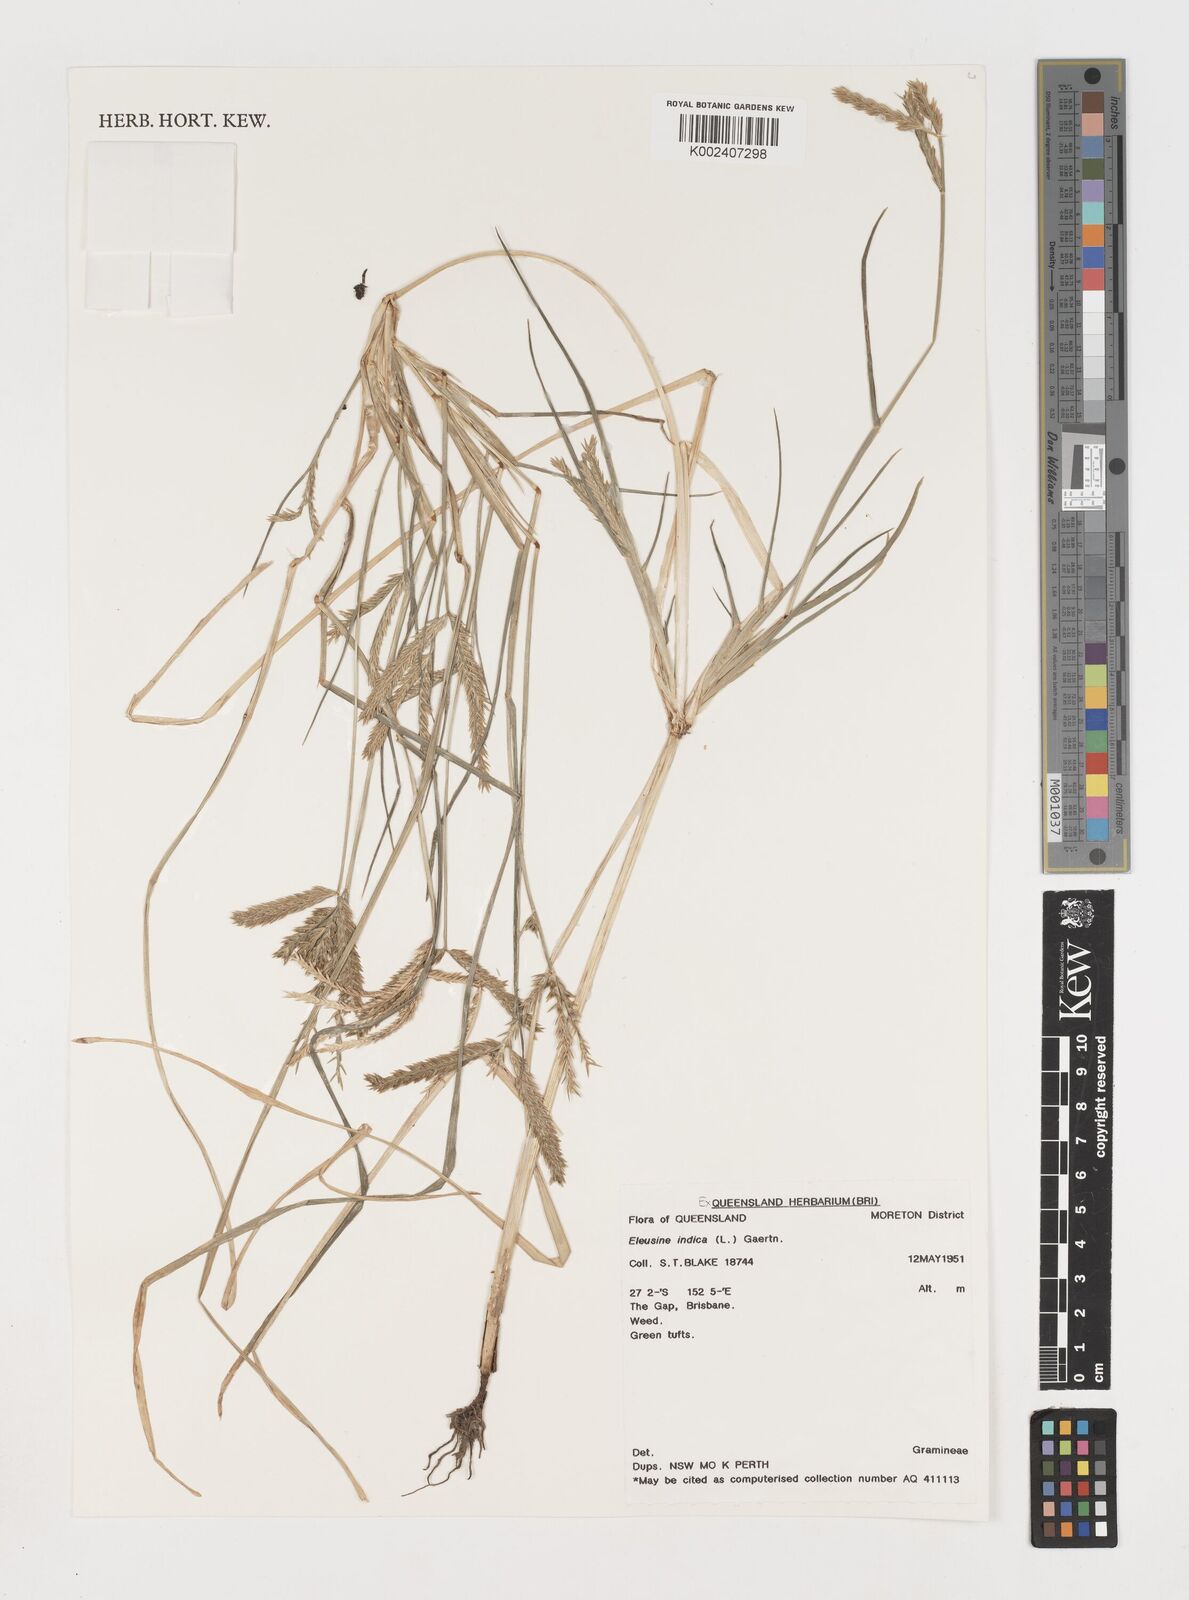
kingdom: Plantae
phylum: Tracheophyta
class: Liliopsida
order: Poales
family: Poaceae
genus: Eleusine
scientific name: Eleusine indica
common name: Yard-grass
